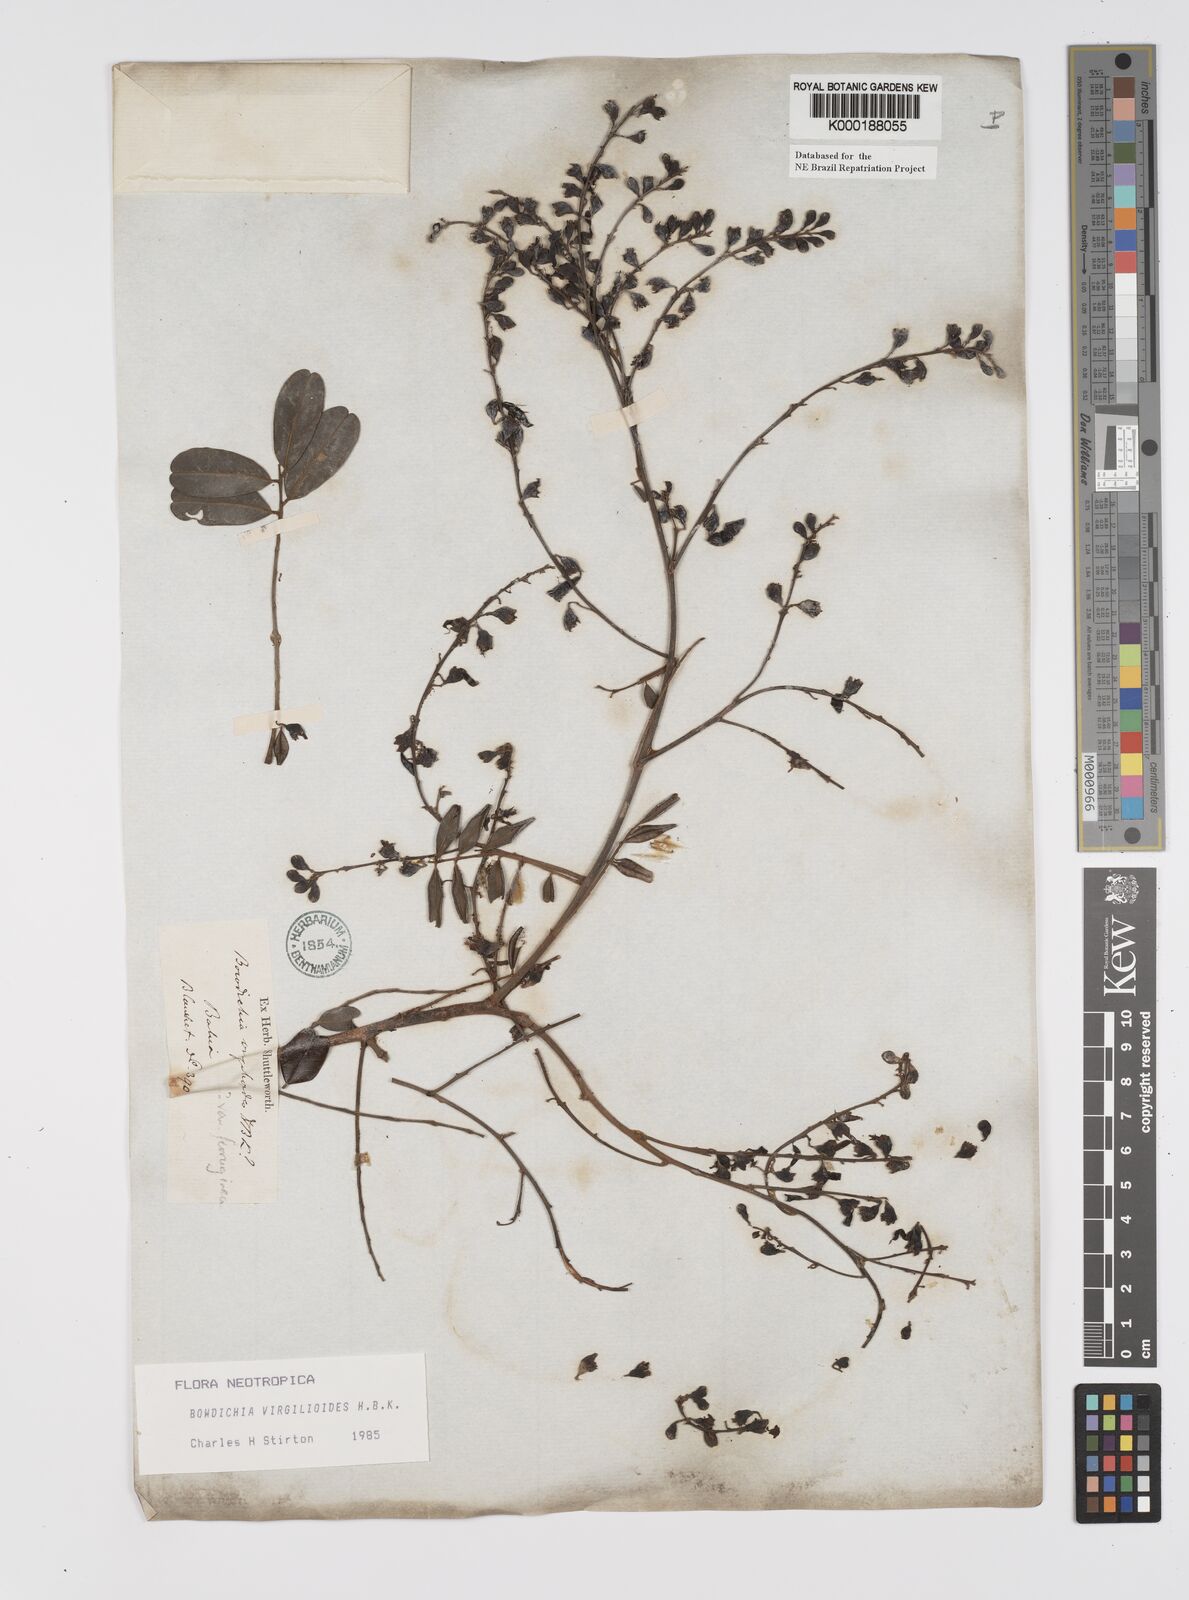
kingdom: Plantae
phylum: Tracheophyta
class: Magnoliopsida
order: Fabales
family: Fabaceae
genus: Bowdichia
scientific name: Bowdichia virgilioides
